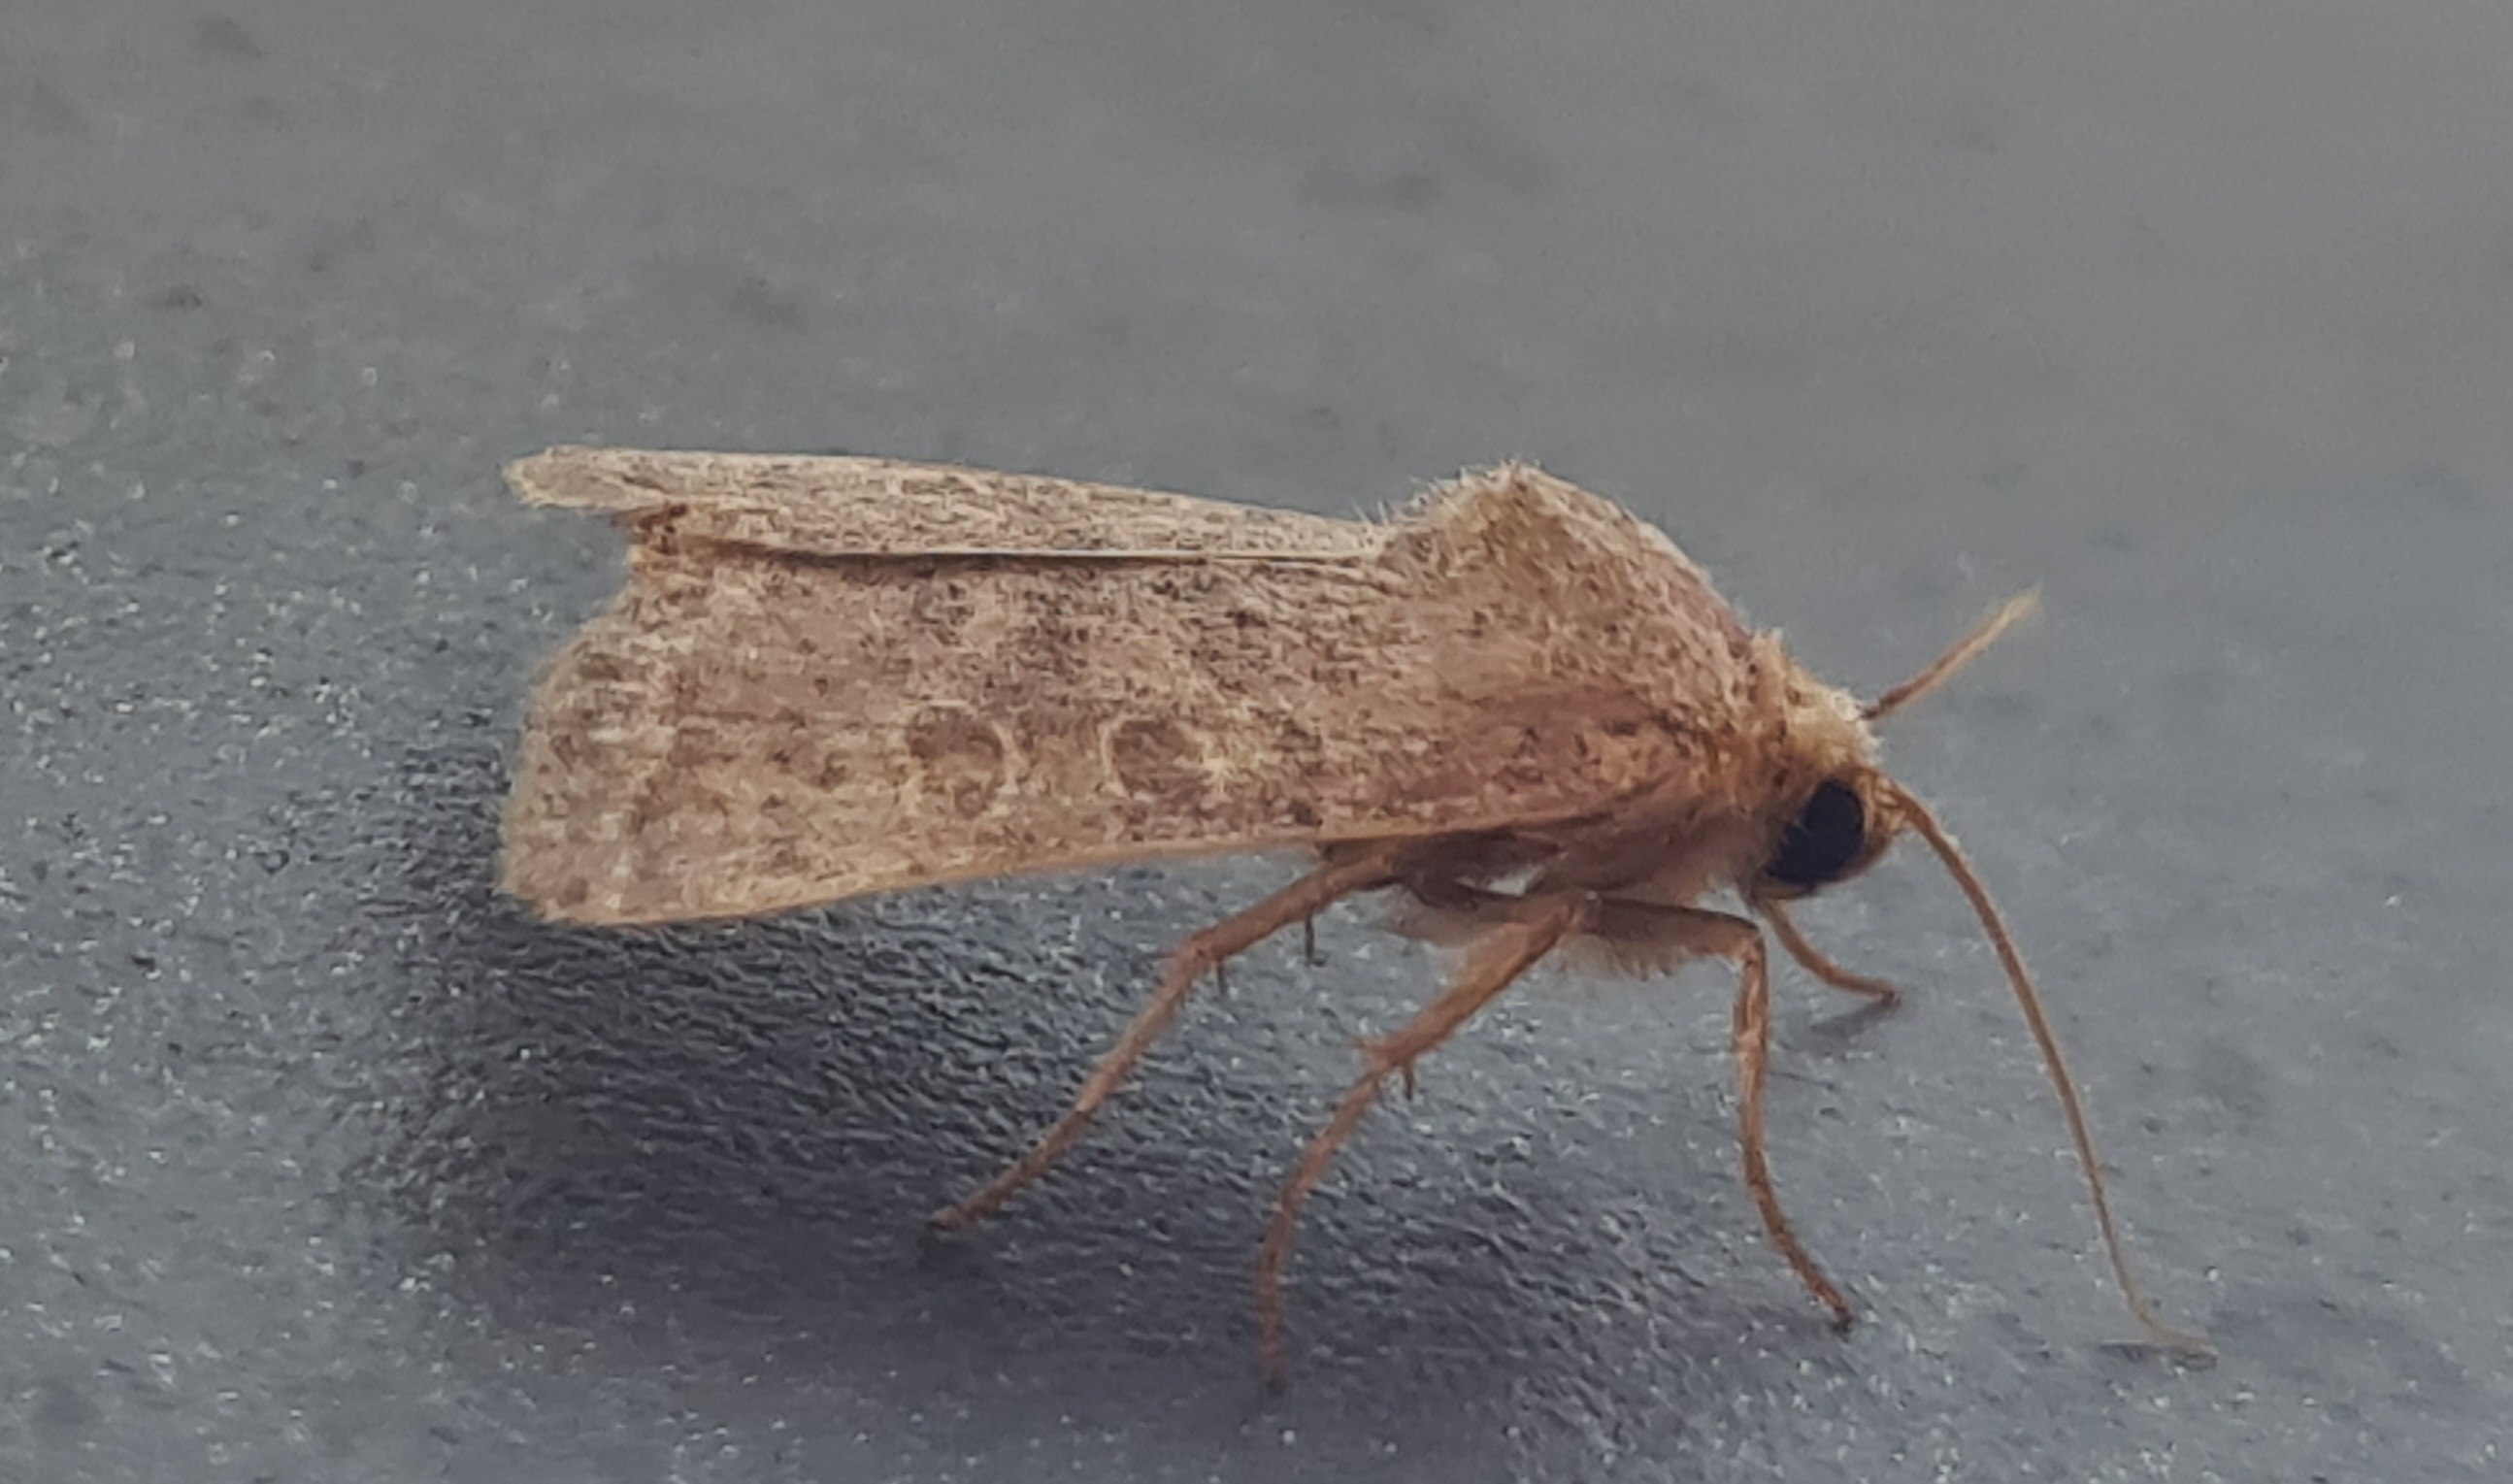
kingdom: Animalia
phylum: Arthropoda
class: Insecta
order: Lepidoptera
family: Noctuidae
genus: Hoplodrina
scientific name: Hoplodrina ambigua
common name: Tvivlsom mus
